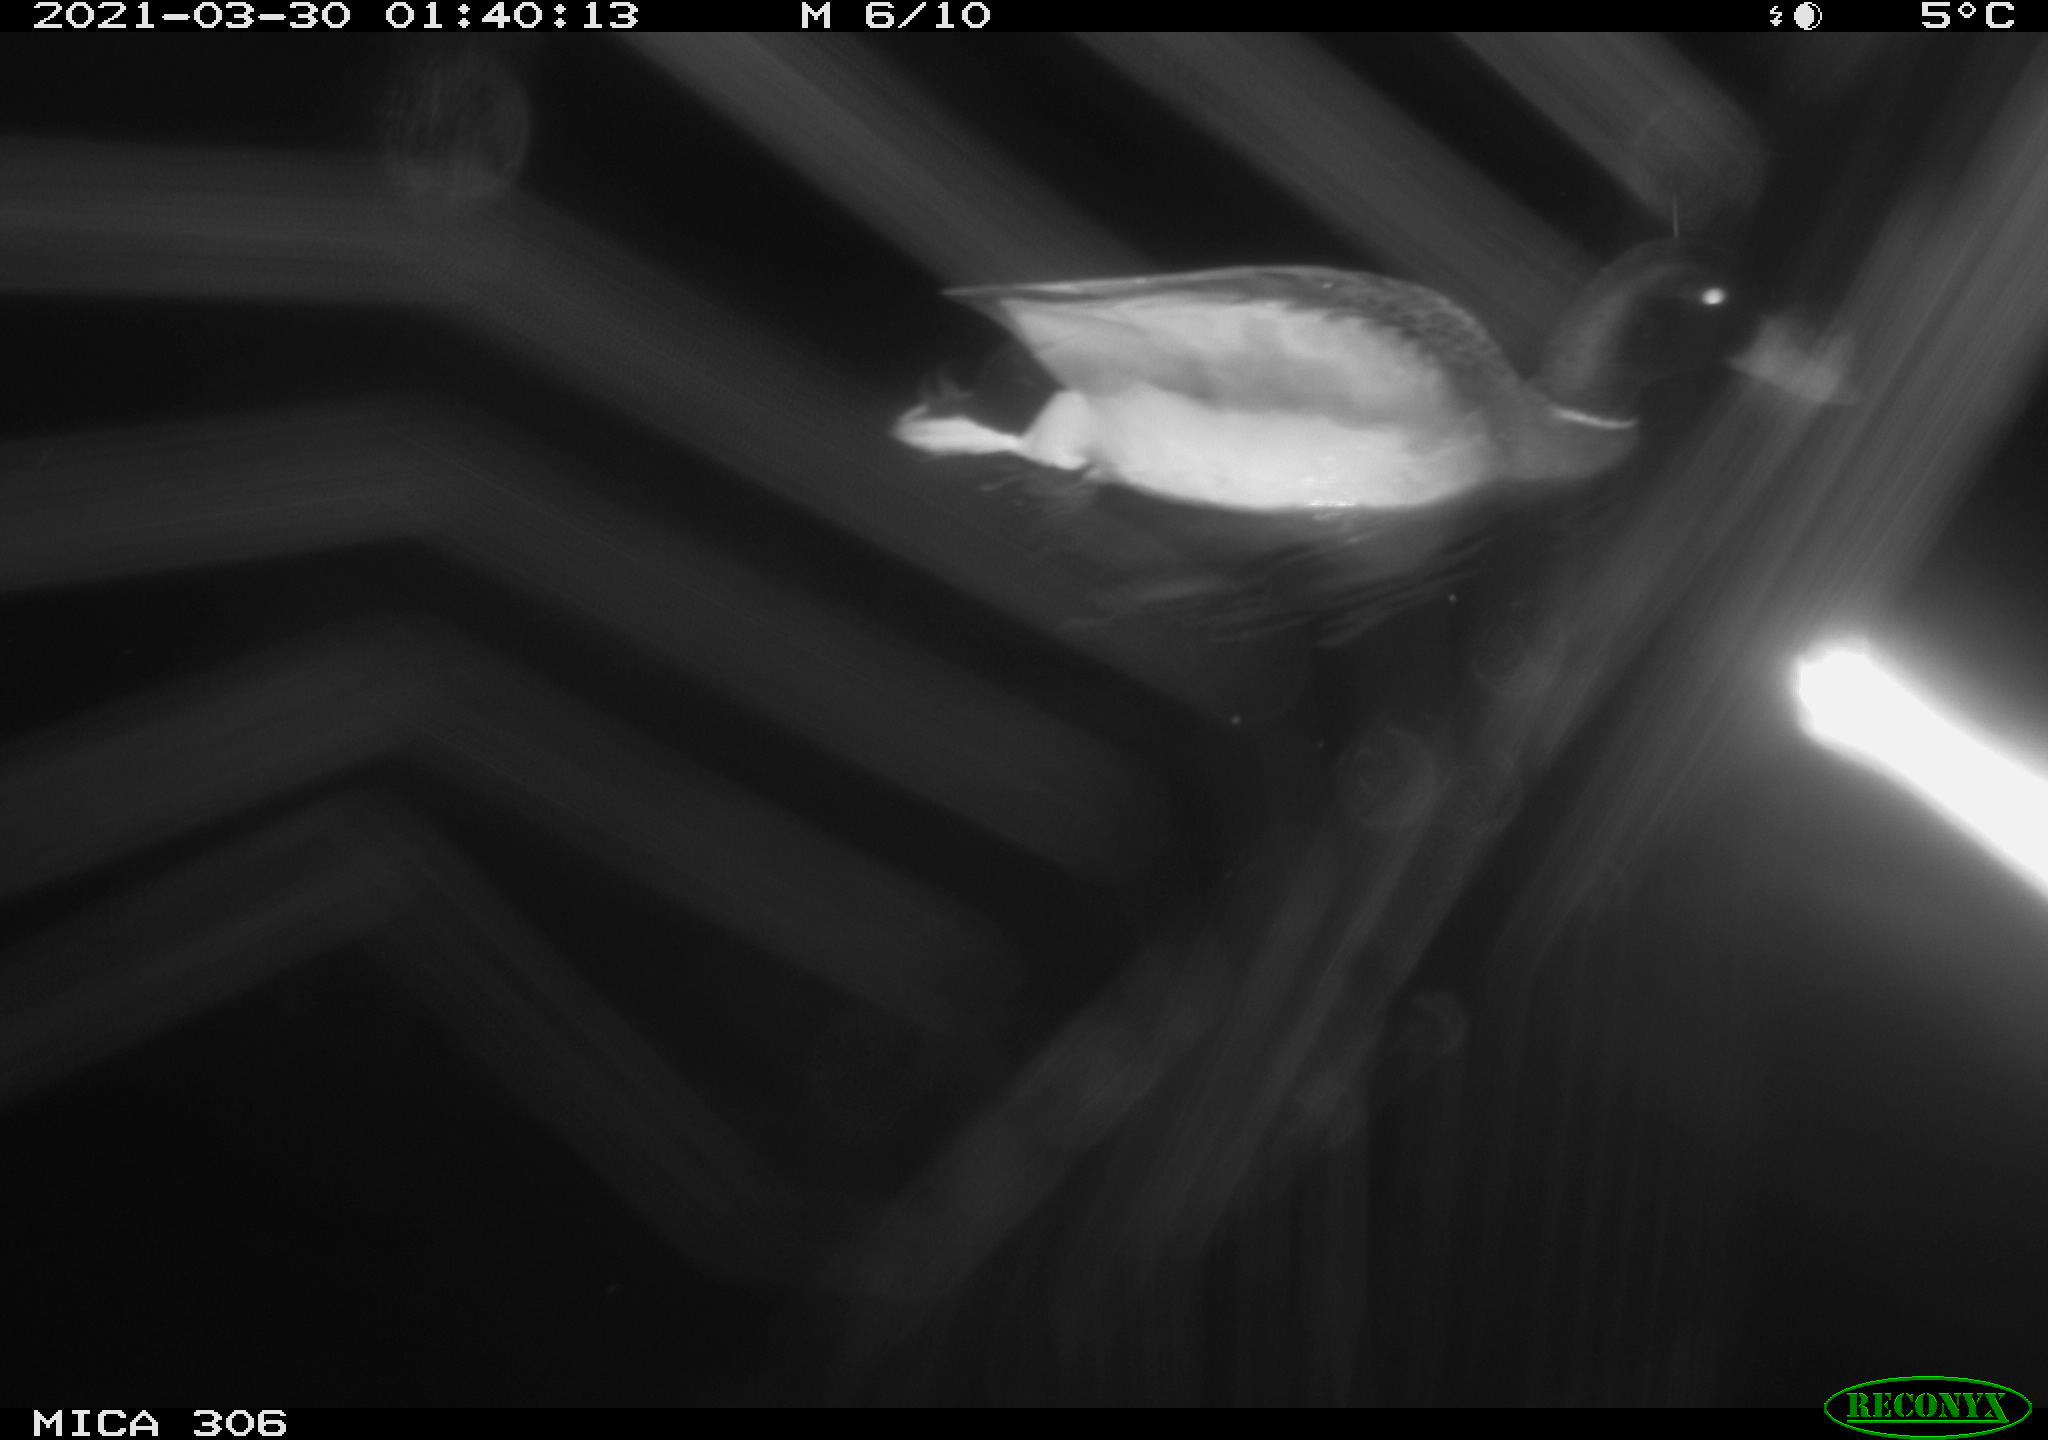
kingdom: Animalia
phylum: Chordata
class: Aves
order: Anseriformes
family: Anatidae
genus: Anas
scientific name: Anas platyrhynchos
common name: Mallard
